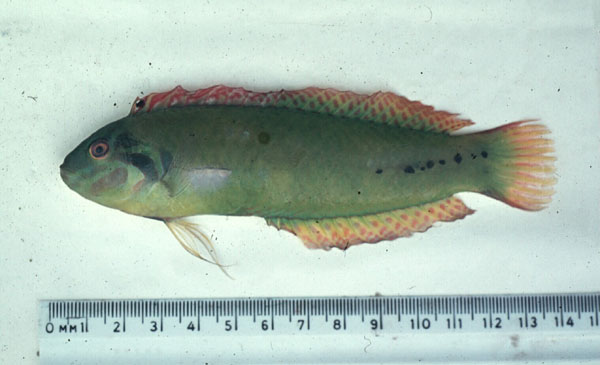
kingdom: Animalia
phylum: Chordata
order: Perciformes
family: Labridae
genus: Novaculoides
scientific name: Novaculoides macrolepidotus
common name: Seagrass wrasse
